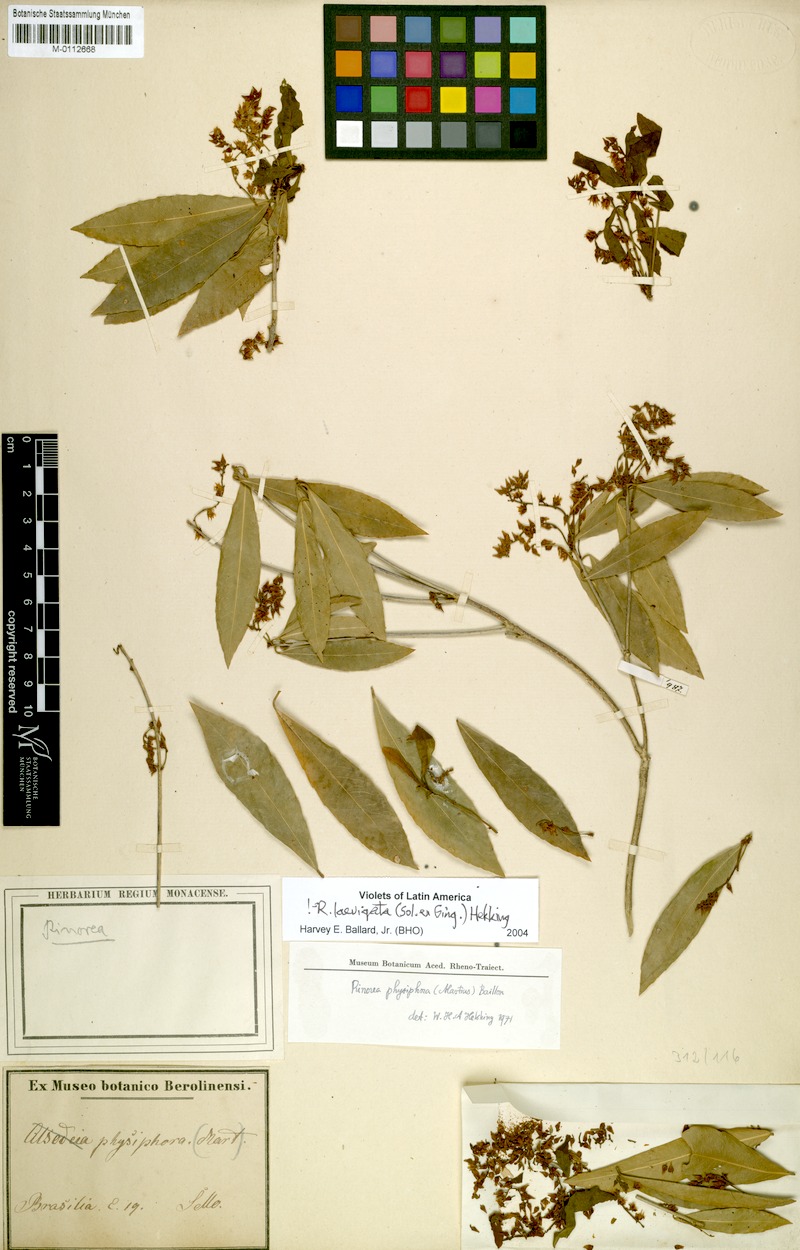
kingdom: Plantae
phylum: Tracheophyta
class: Magnoliopsida
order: Malpighiales
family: Violaceae
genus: Rinorea
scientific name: Rinorea laevigata
